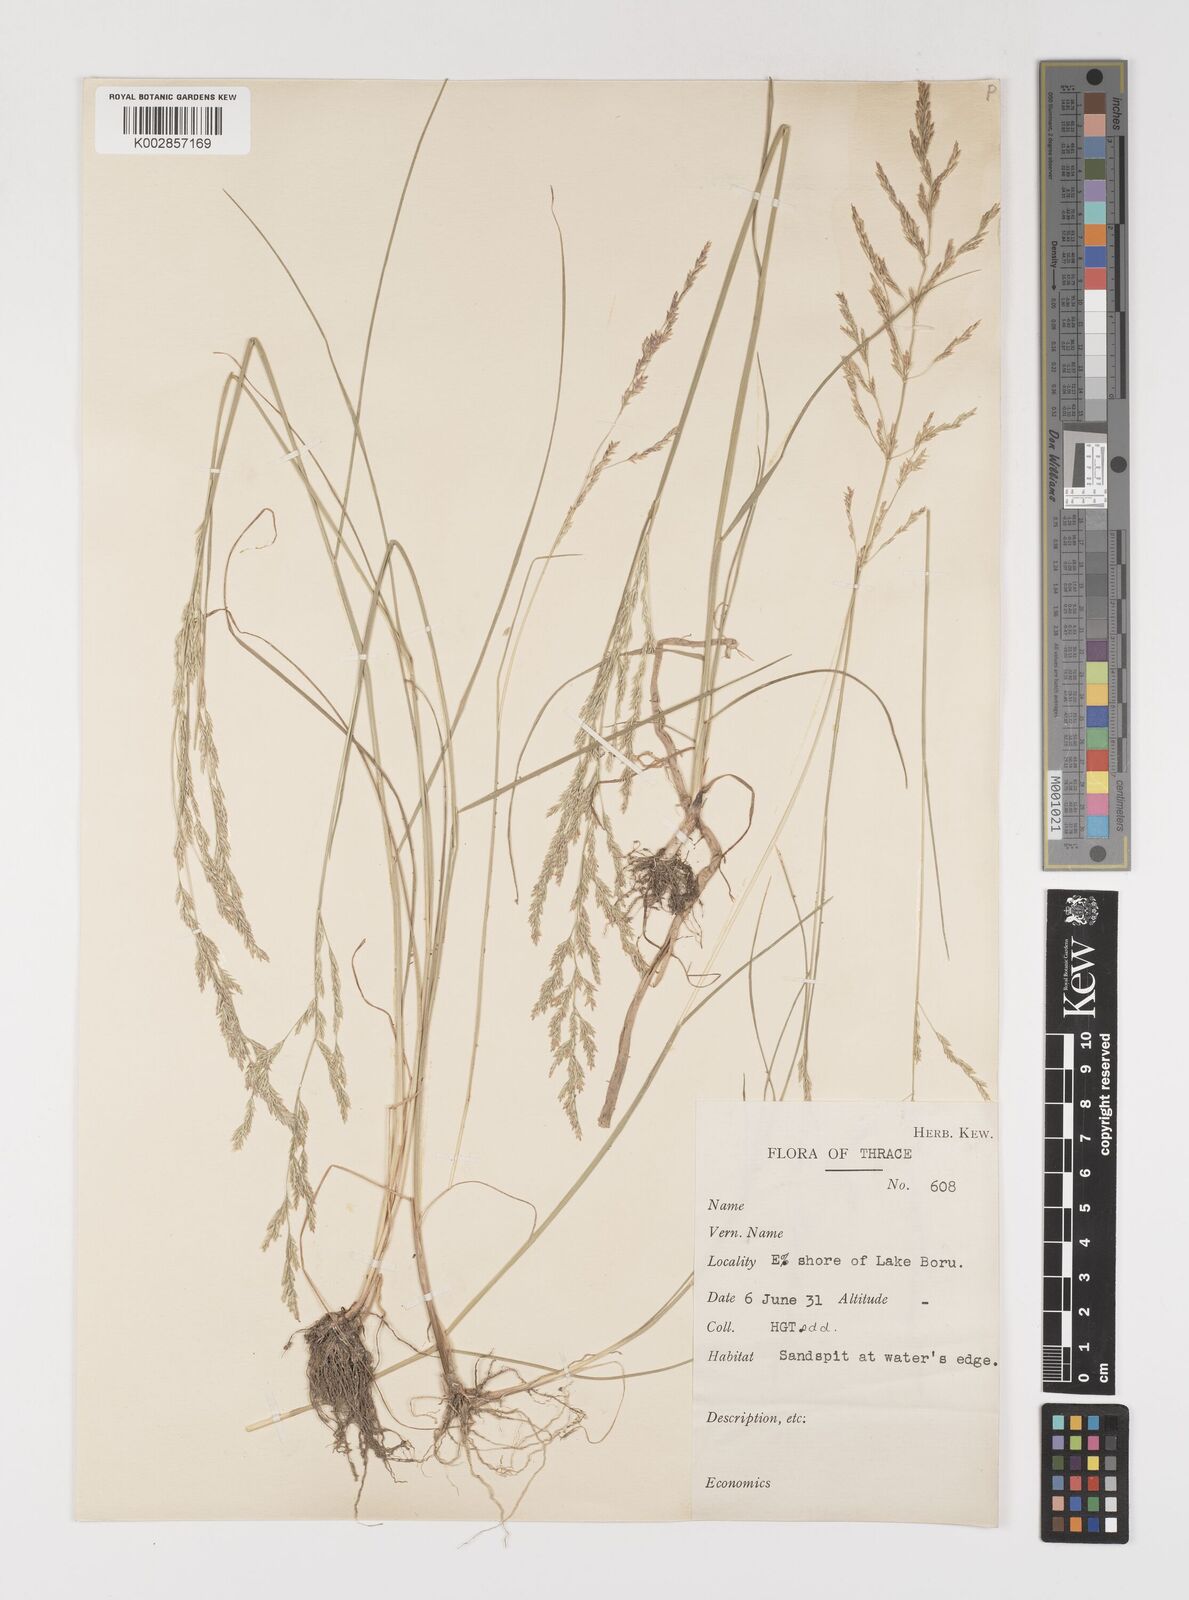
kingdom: Plantae
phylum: Tracheophyta
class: Liliopsida
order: Poales
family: Poaceae
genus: Puccinellia
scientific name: Puccinellia festuciformis
